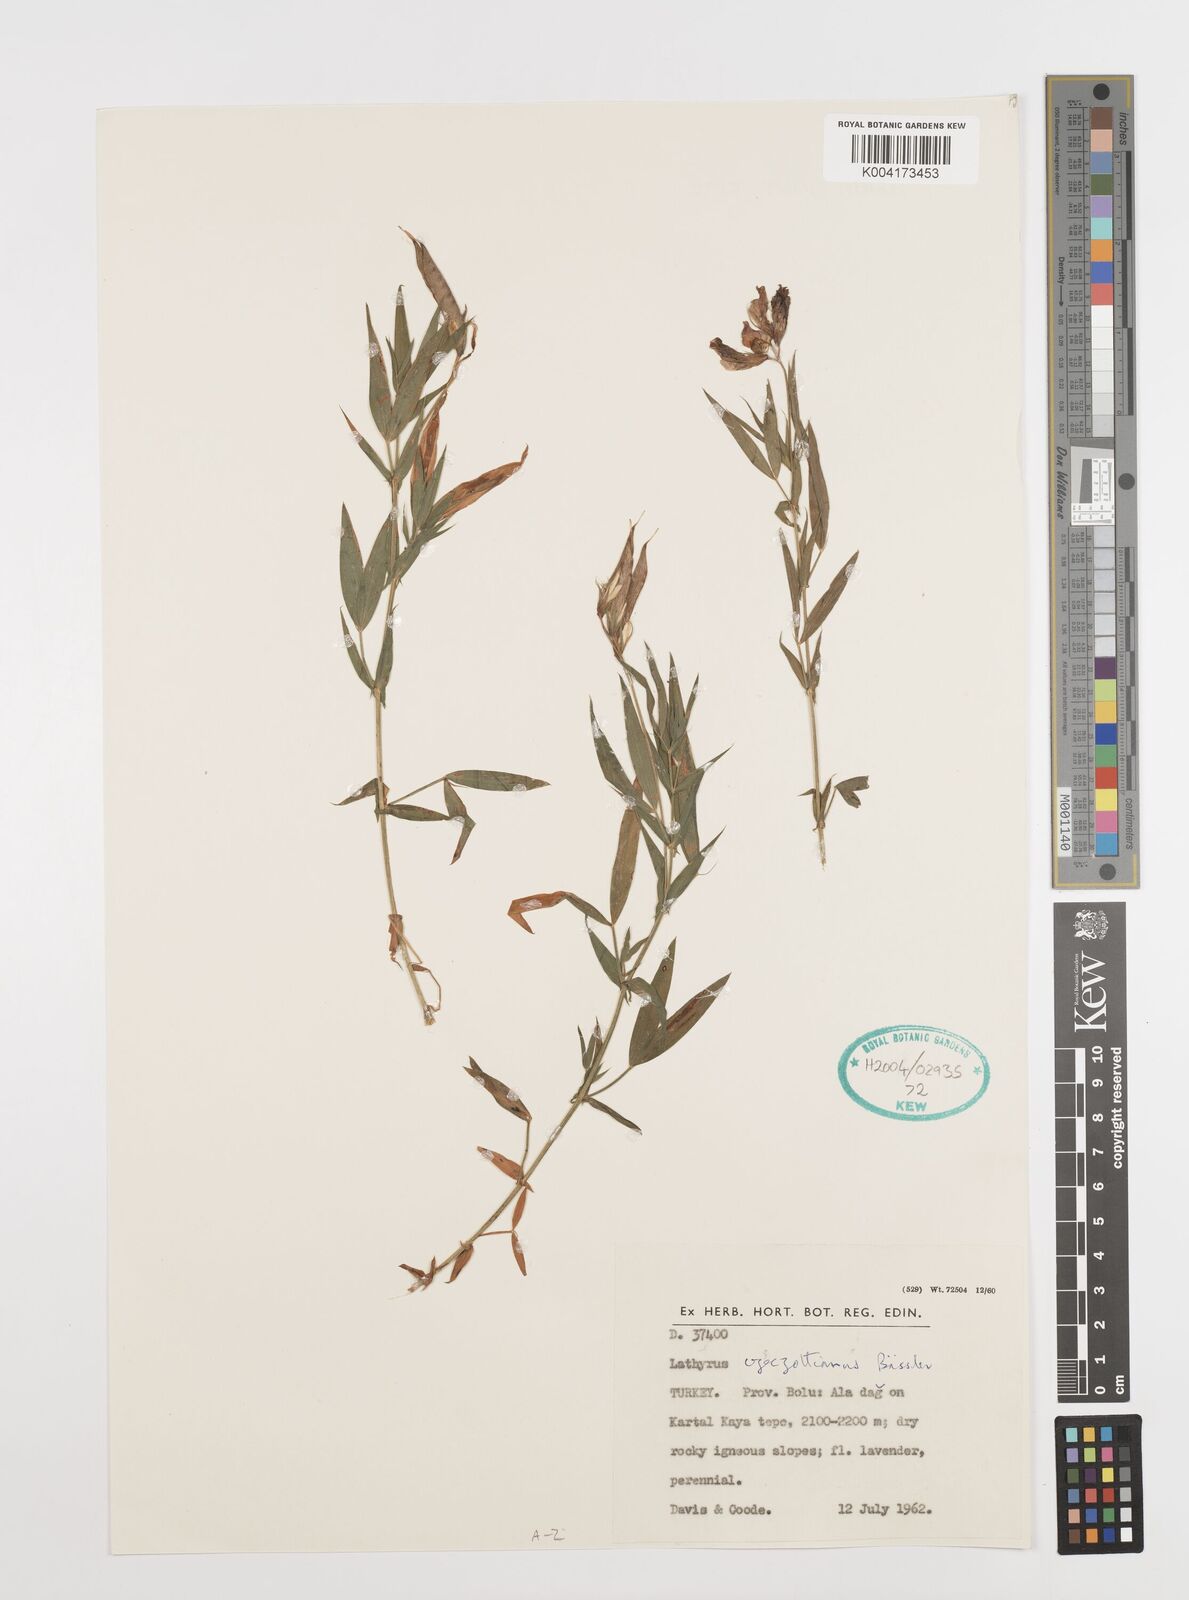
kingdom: Plantae
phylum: Tracheophyta
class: Magnoliopsida
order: Fabales
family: Fabaceae
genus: Lathyrus
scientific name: Lathyrus czeczottianus
